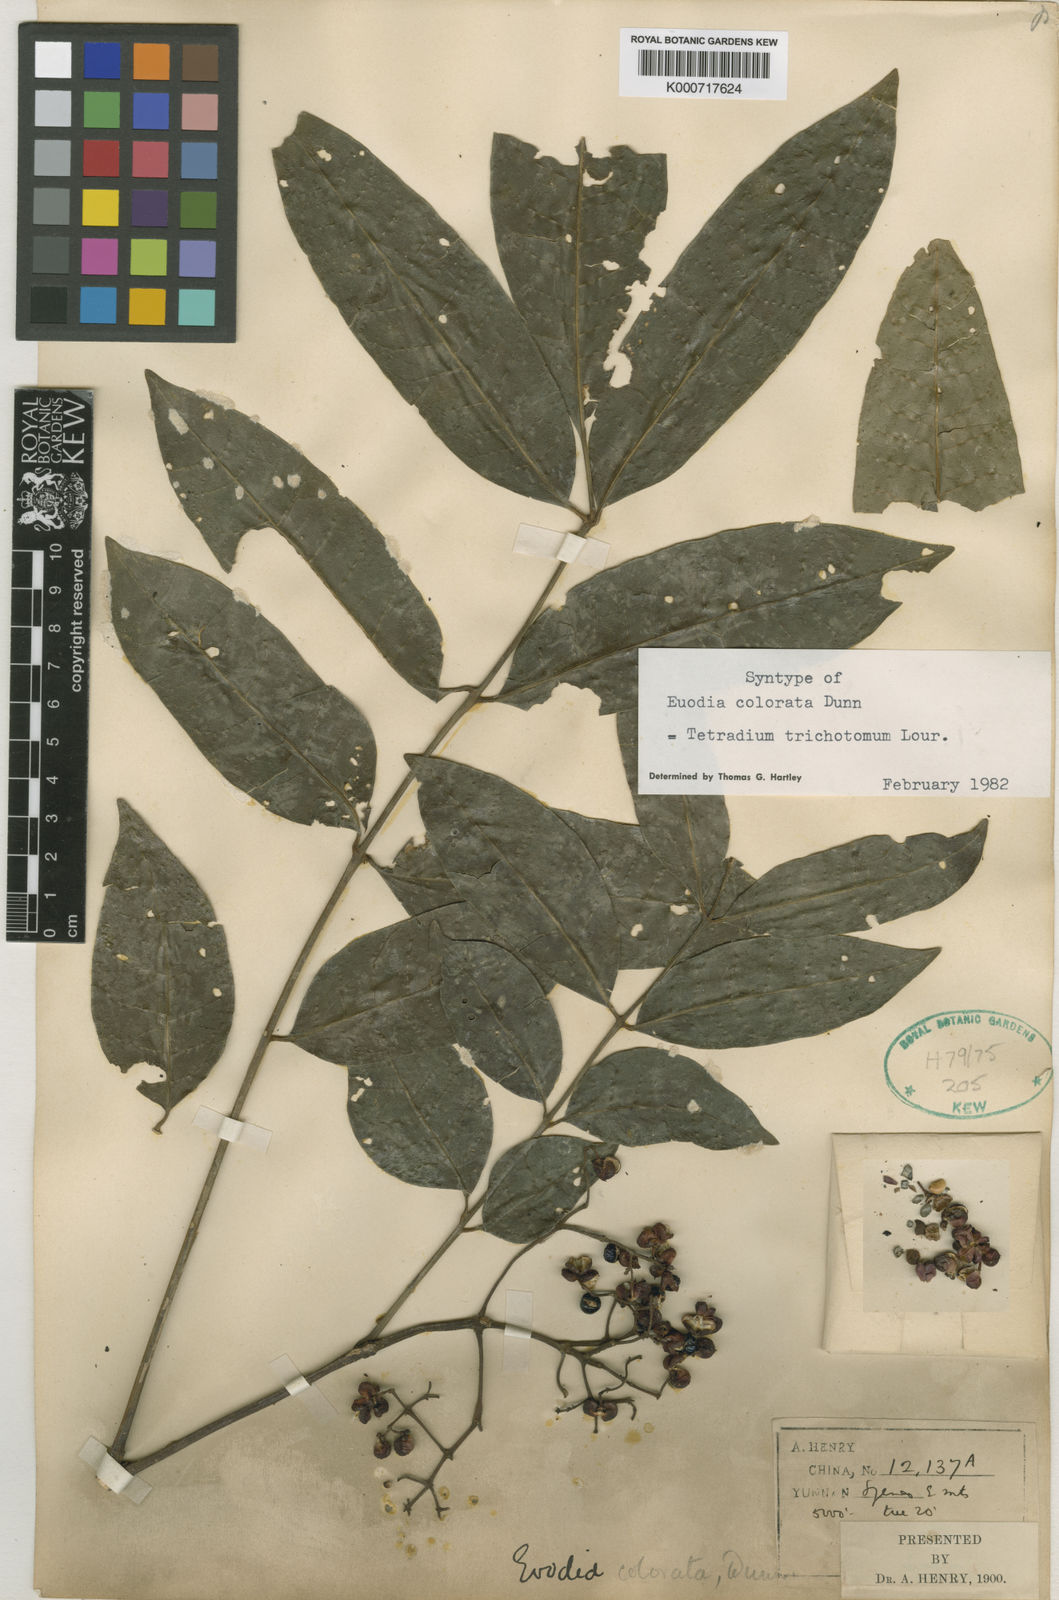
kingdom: Plantae
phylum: Tracheophyta
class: Magnoliopsida
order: Sapindales
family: Rutaceae
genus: Tetradium
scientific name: Tetradium trichotomum
